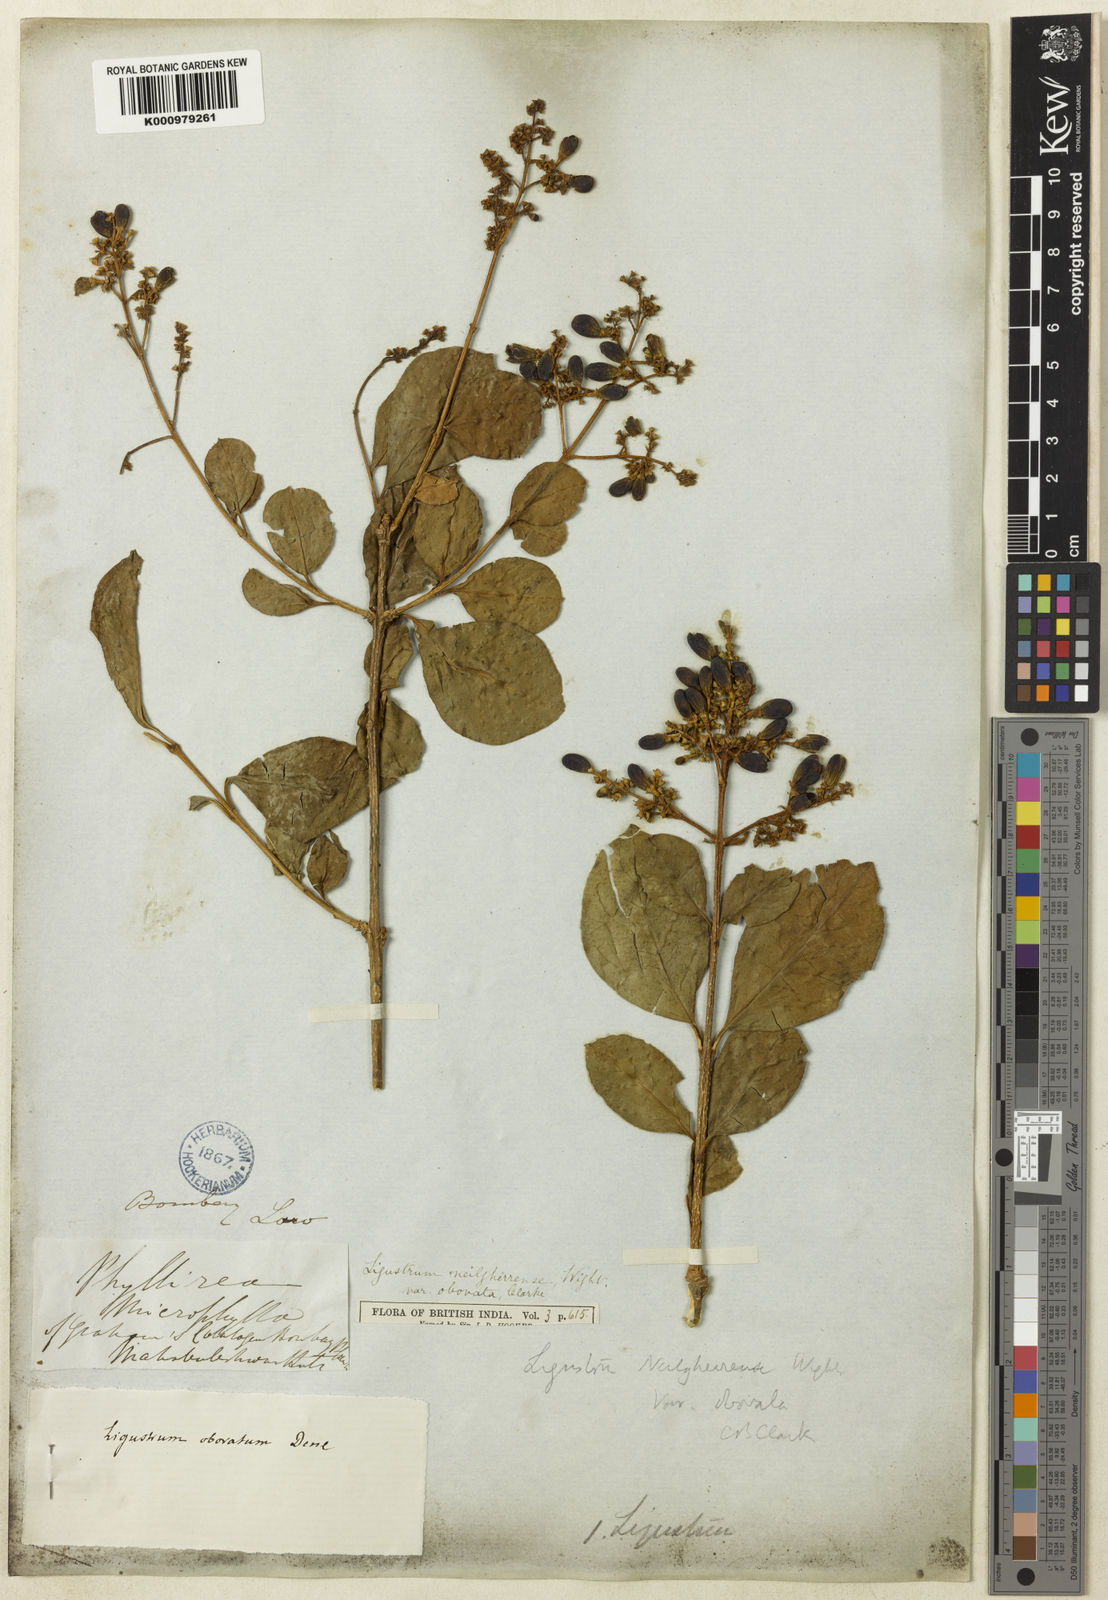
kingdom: Plantae
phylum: Tracheophyta
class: Magnoliopsida
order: Lamiales
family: Oleaceae
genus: Ligustrum
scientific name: Ligustrum robustum
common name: Tree privet
